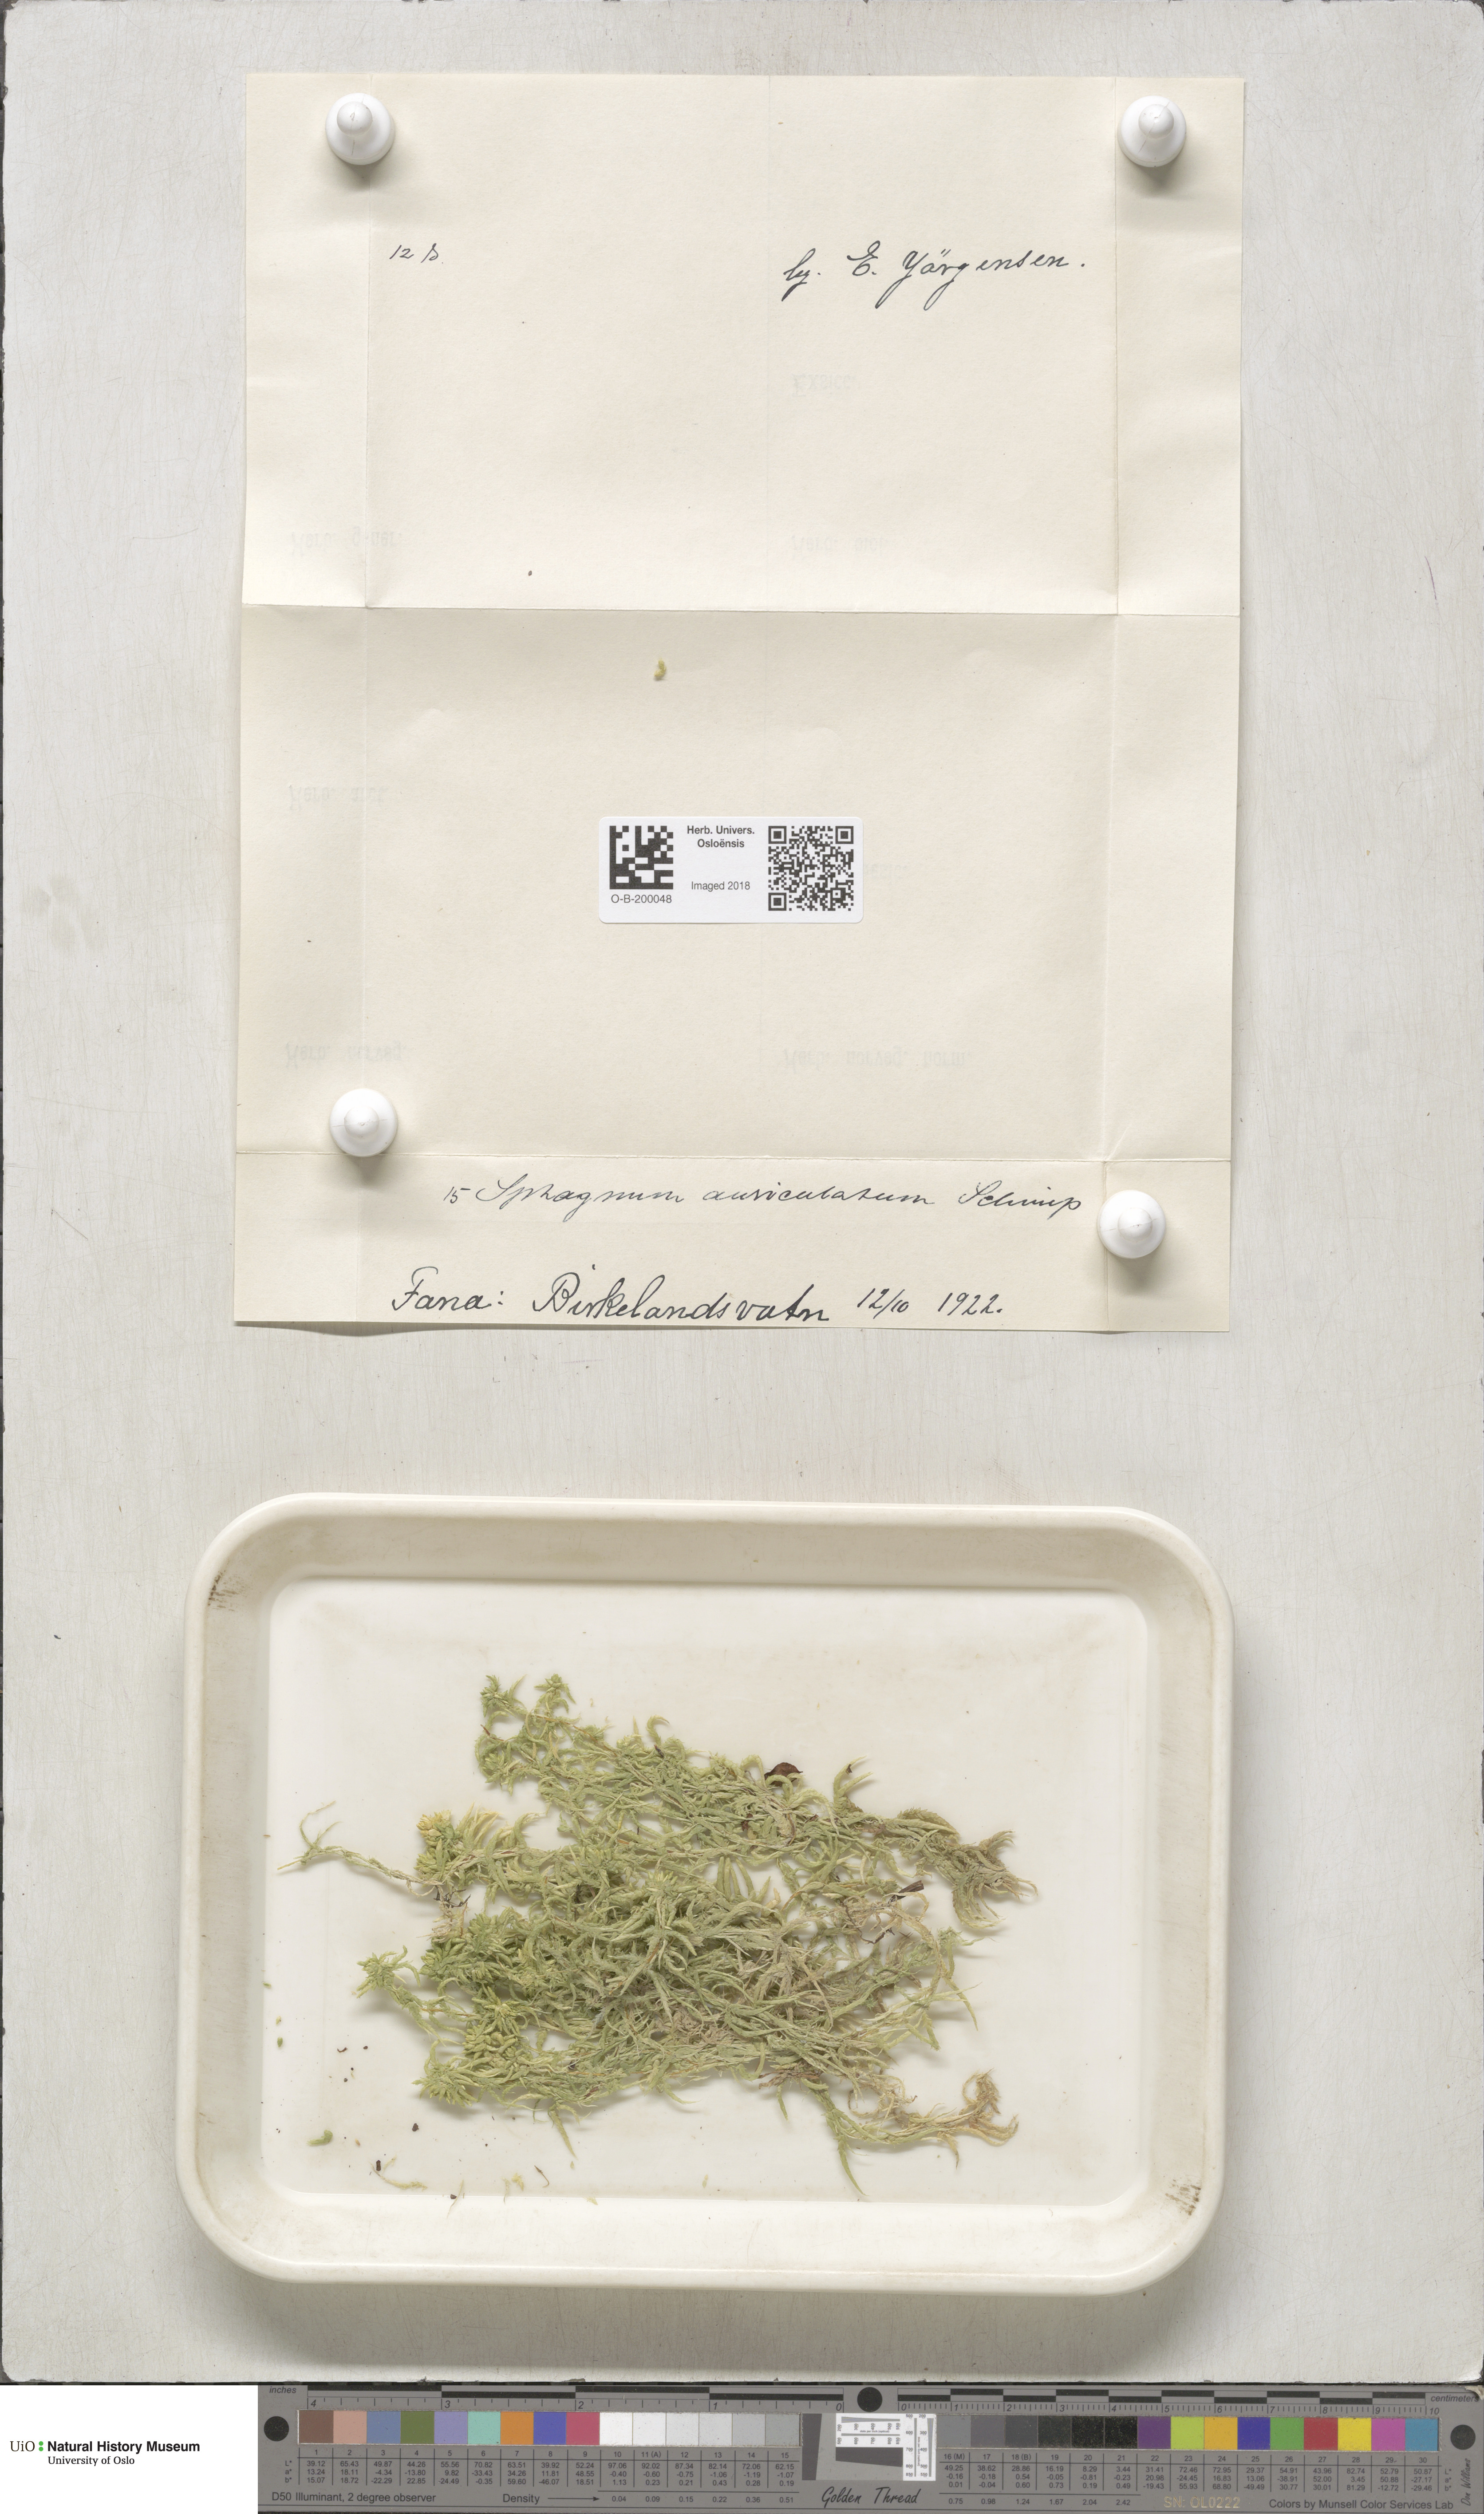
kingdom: Plantae
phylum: Bryophyta
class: Sphagnopsida
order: Sphagnales
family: Sphagnaceae
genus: Sphagnum
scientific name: Sphagnum denticulatum
